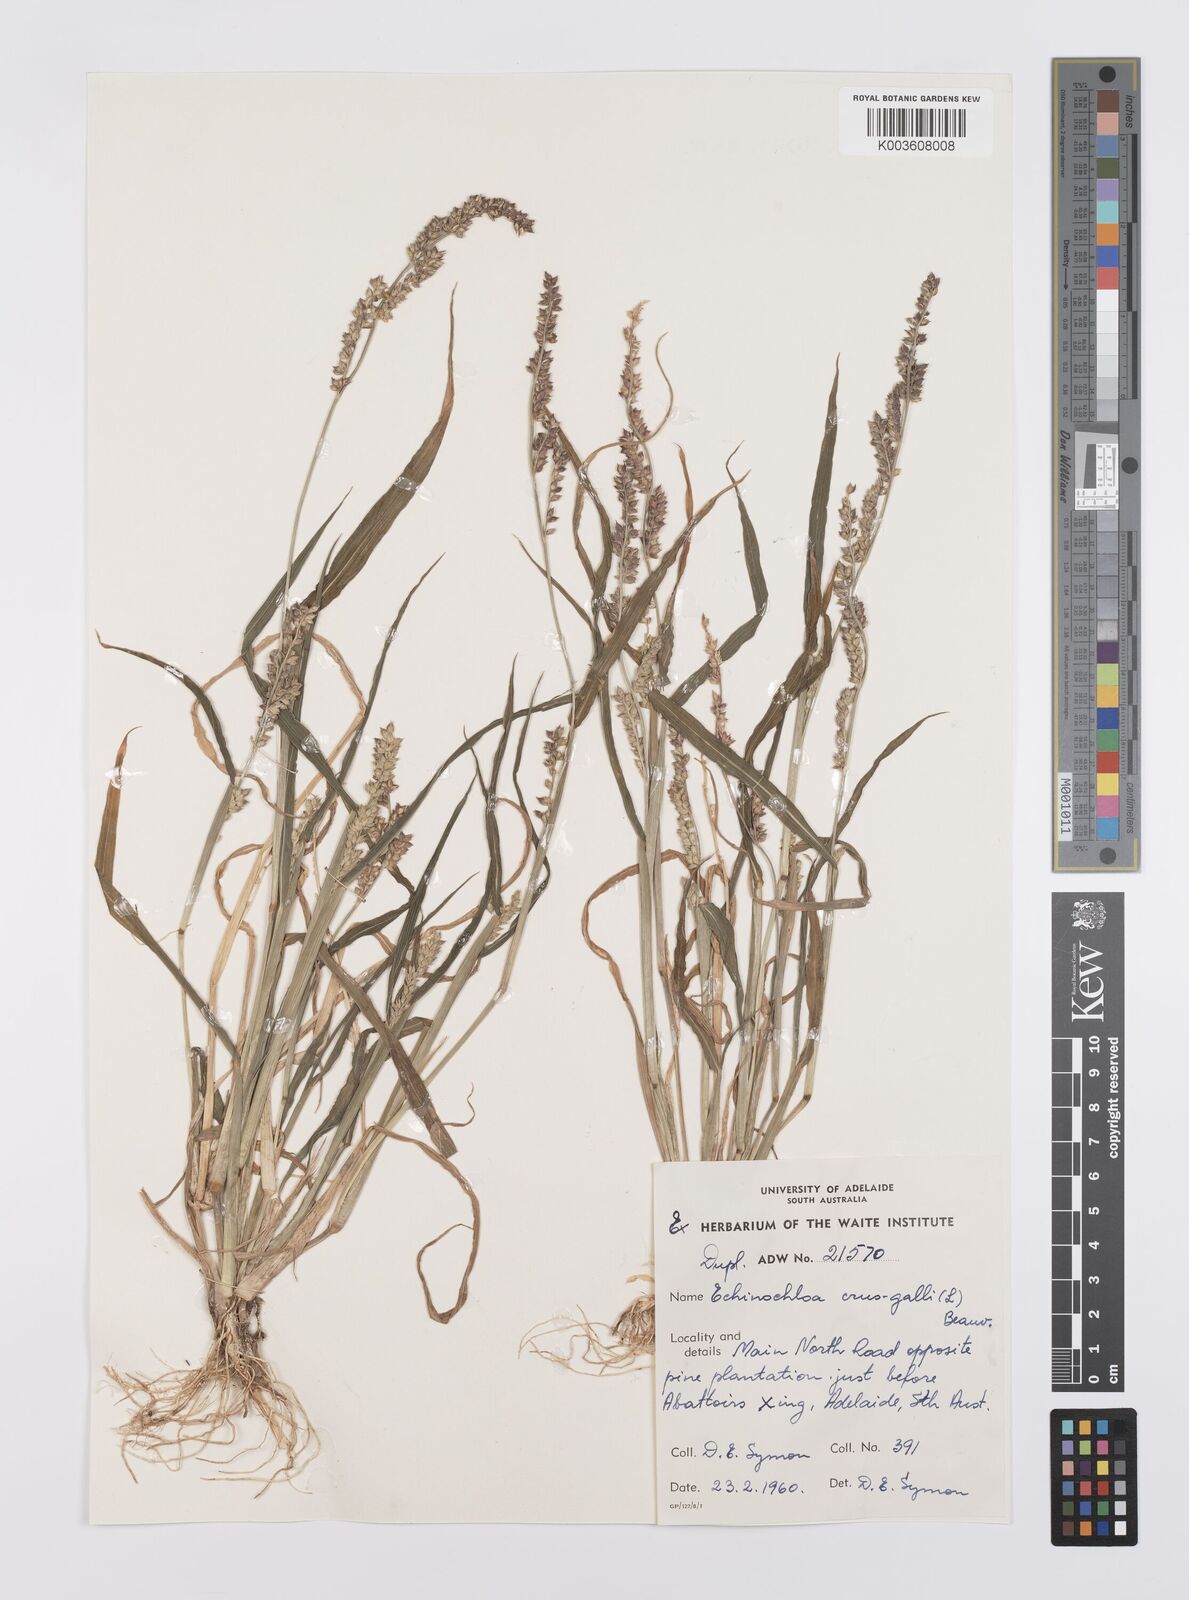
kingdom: Plantae
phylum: Tracheophyta
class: Liliopsida
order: Poales
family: Poaceae
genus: Echinochloa
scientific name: Echinochloa crus-galli
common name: Cockspur
